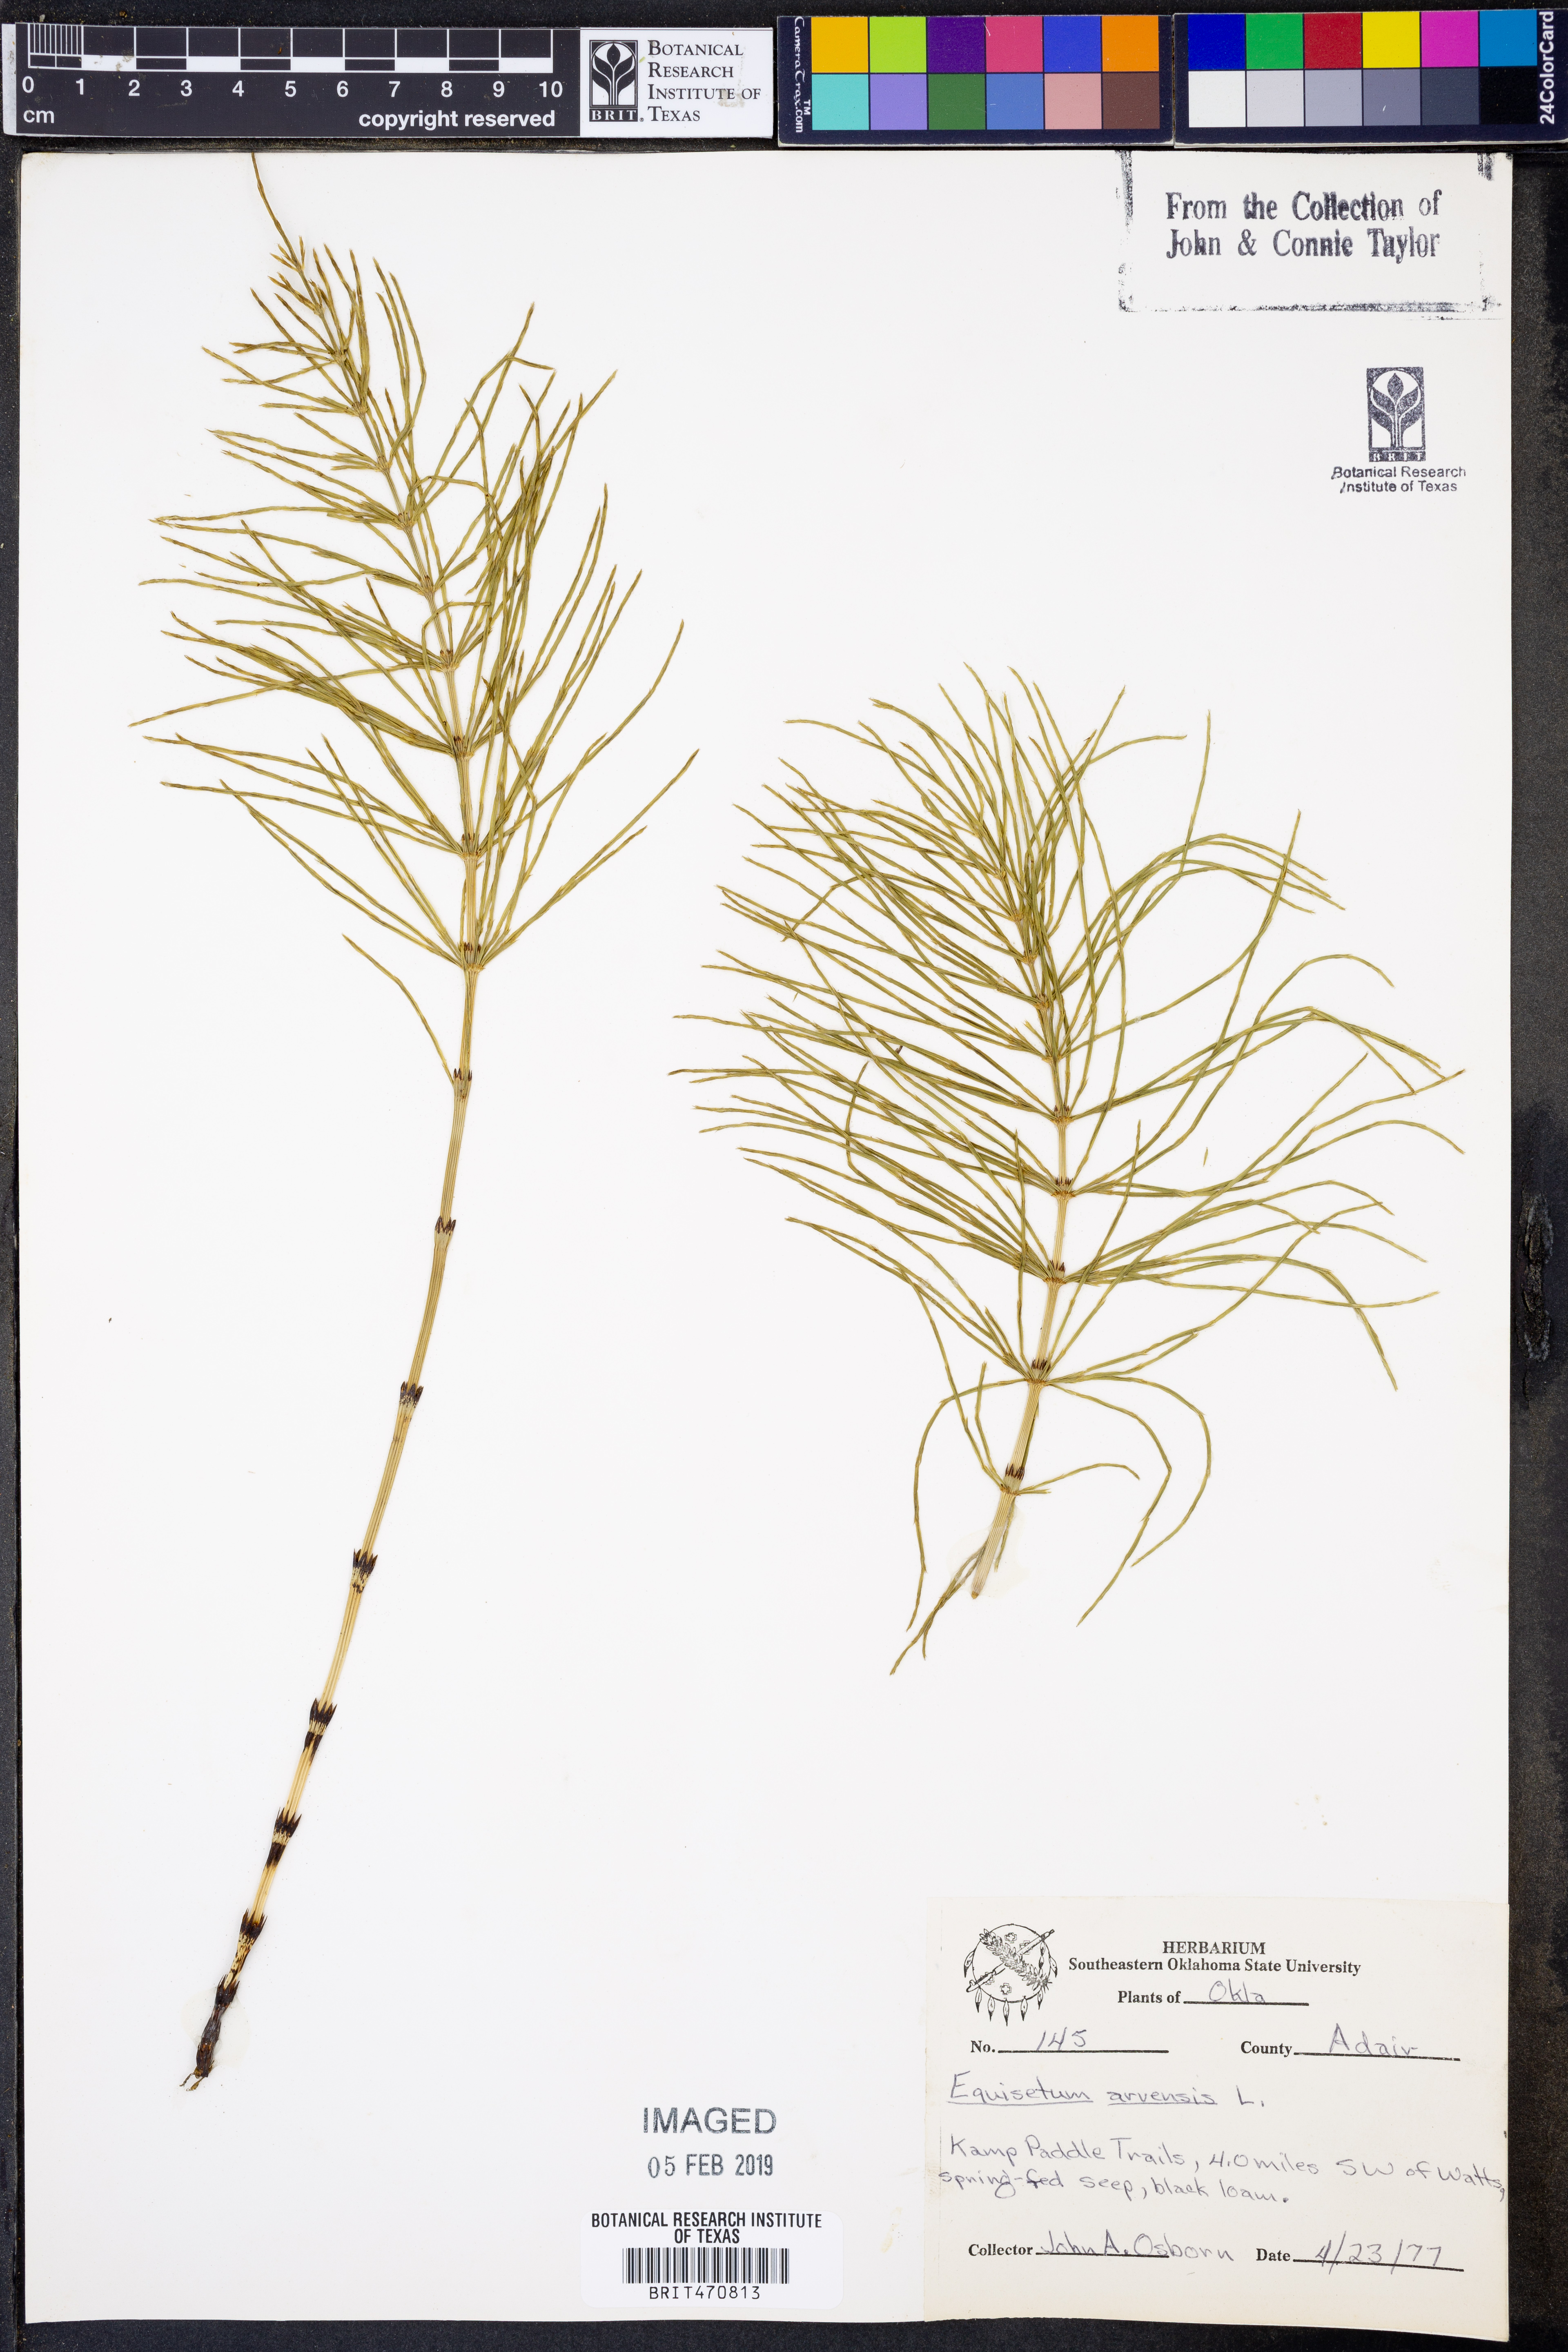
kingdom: Plantae
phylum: Tracheophyta
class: Polypodiopsida
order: Equisetales
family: Equisetaceae
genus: Equisetum
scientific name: Equisetum arvense
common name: Field horsetail
